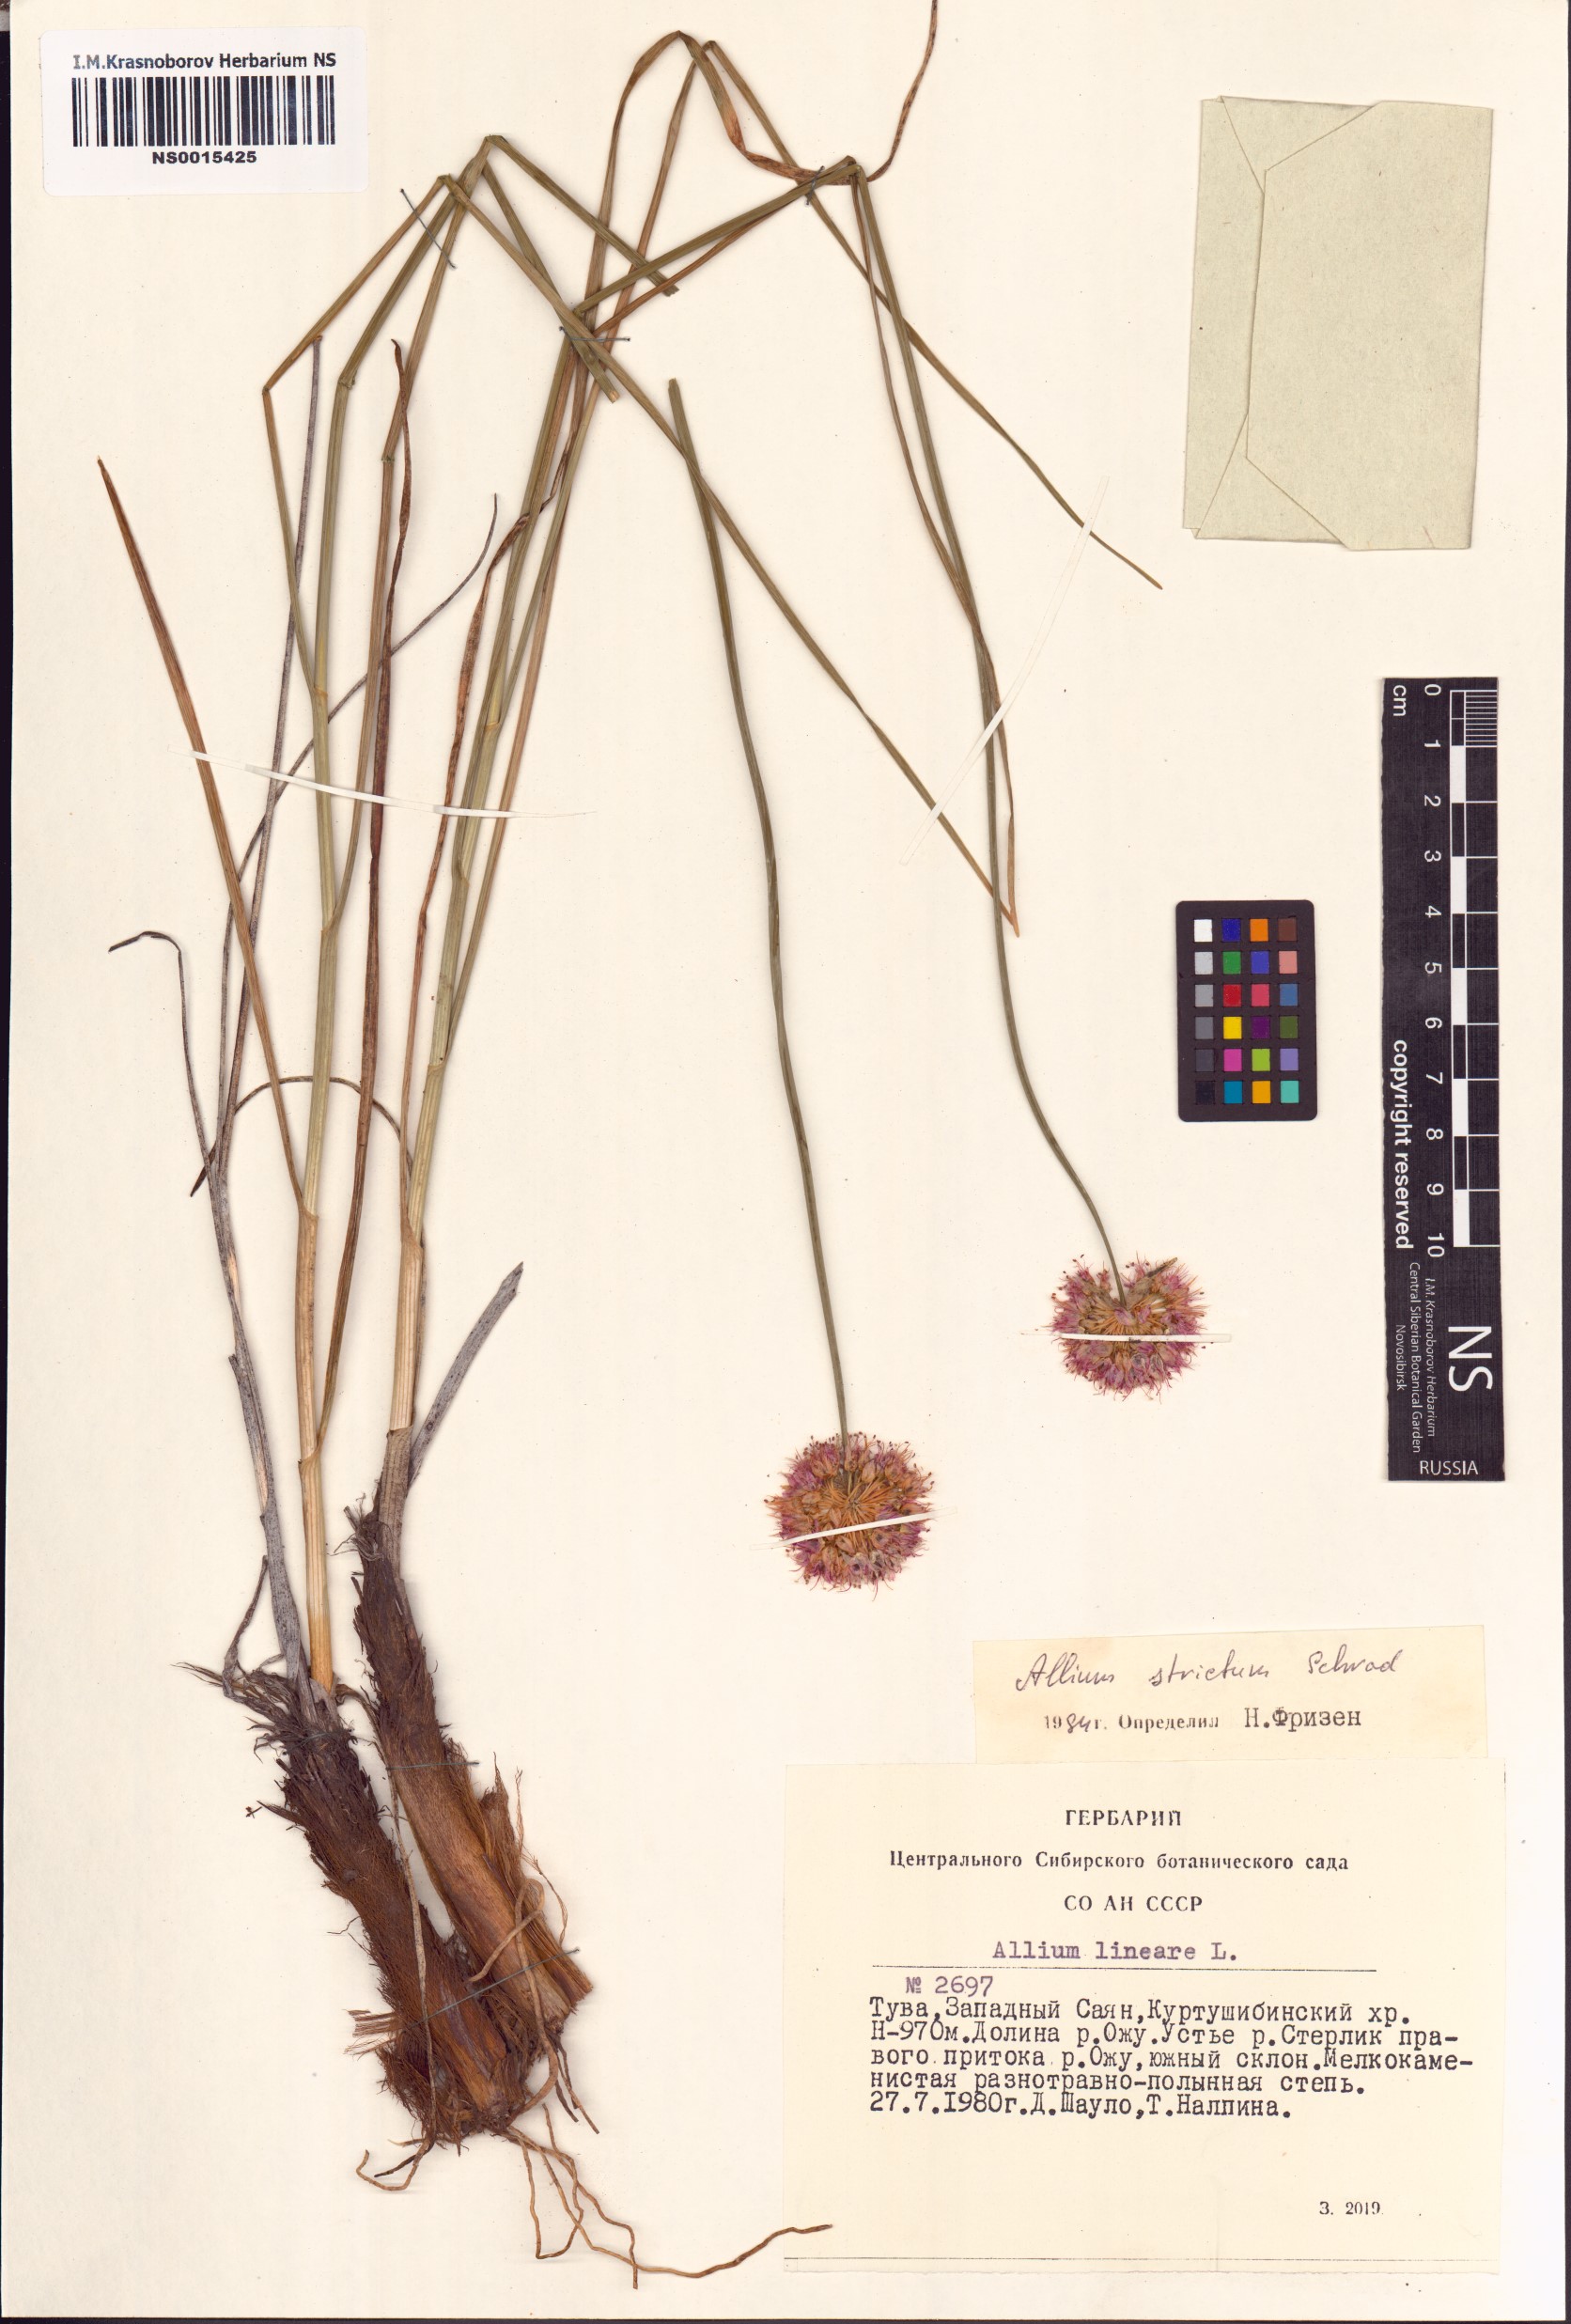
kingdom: Plantae
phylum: Tracheophyta
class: Liliopsida
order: Asparagales
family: Amaryllidaceae
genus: Allium
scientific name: Allium strictum
